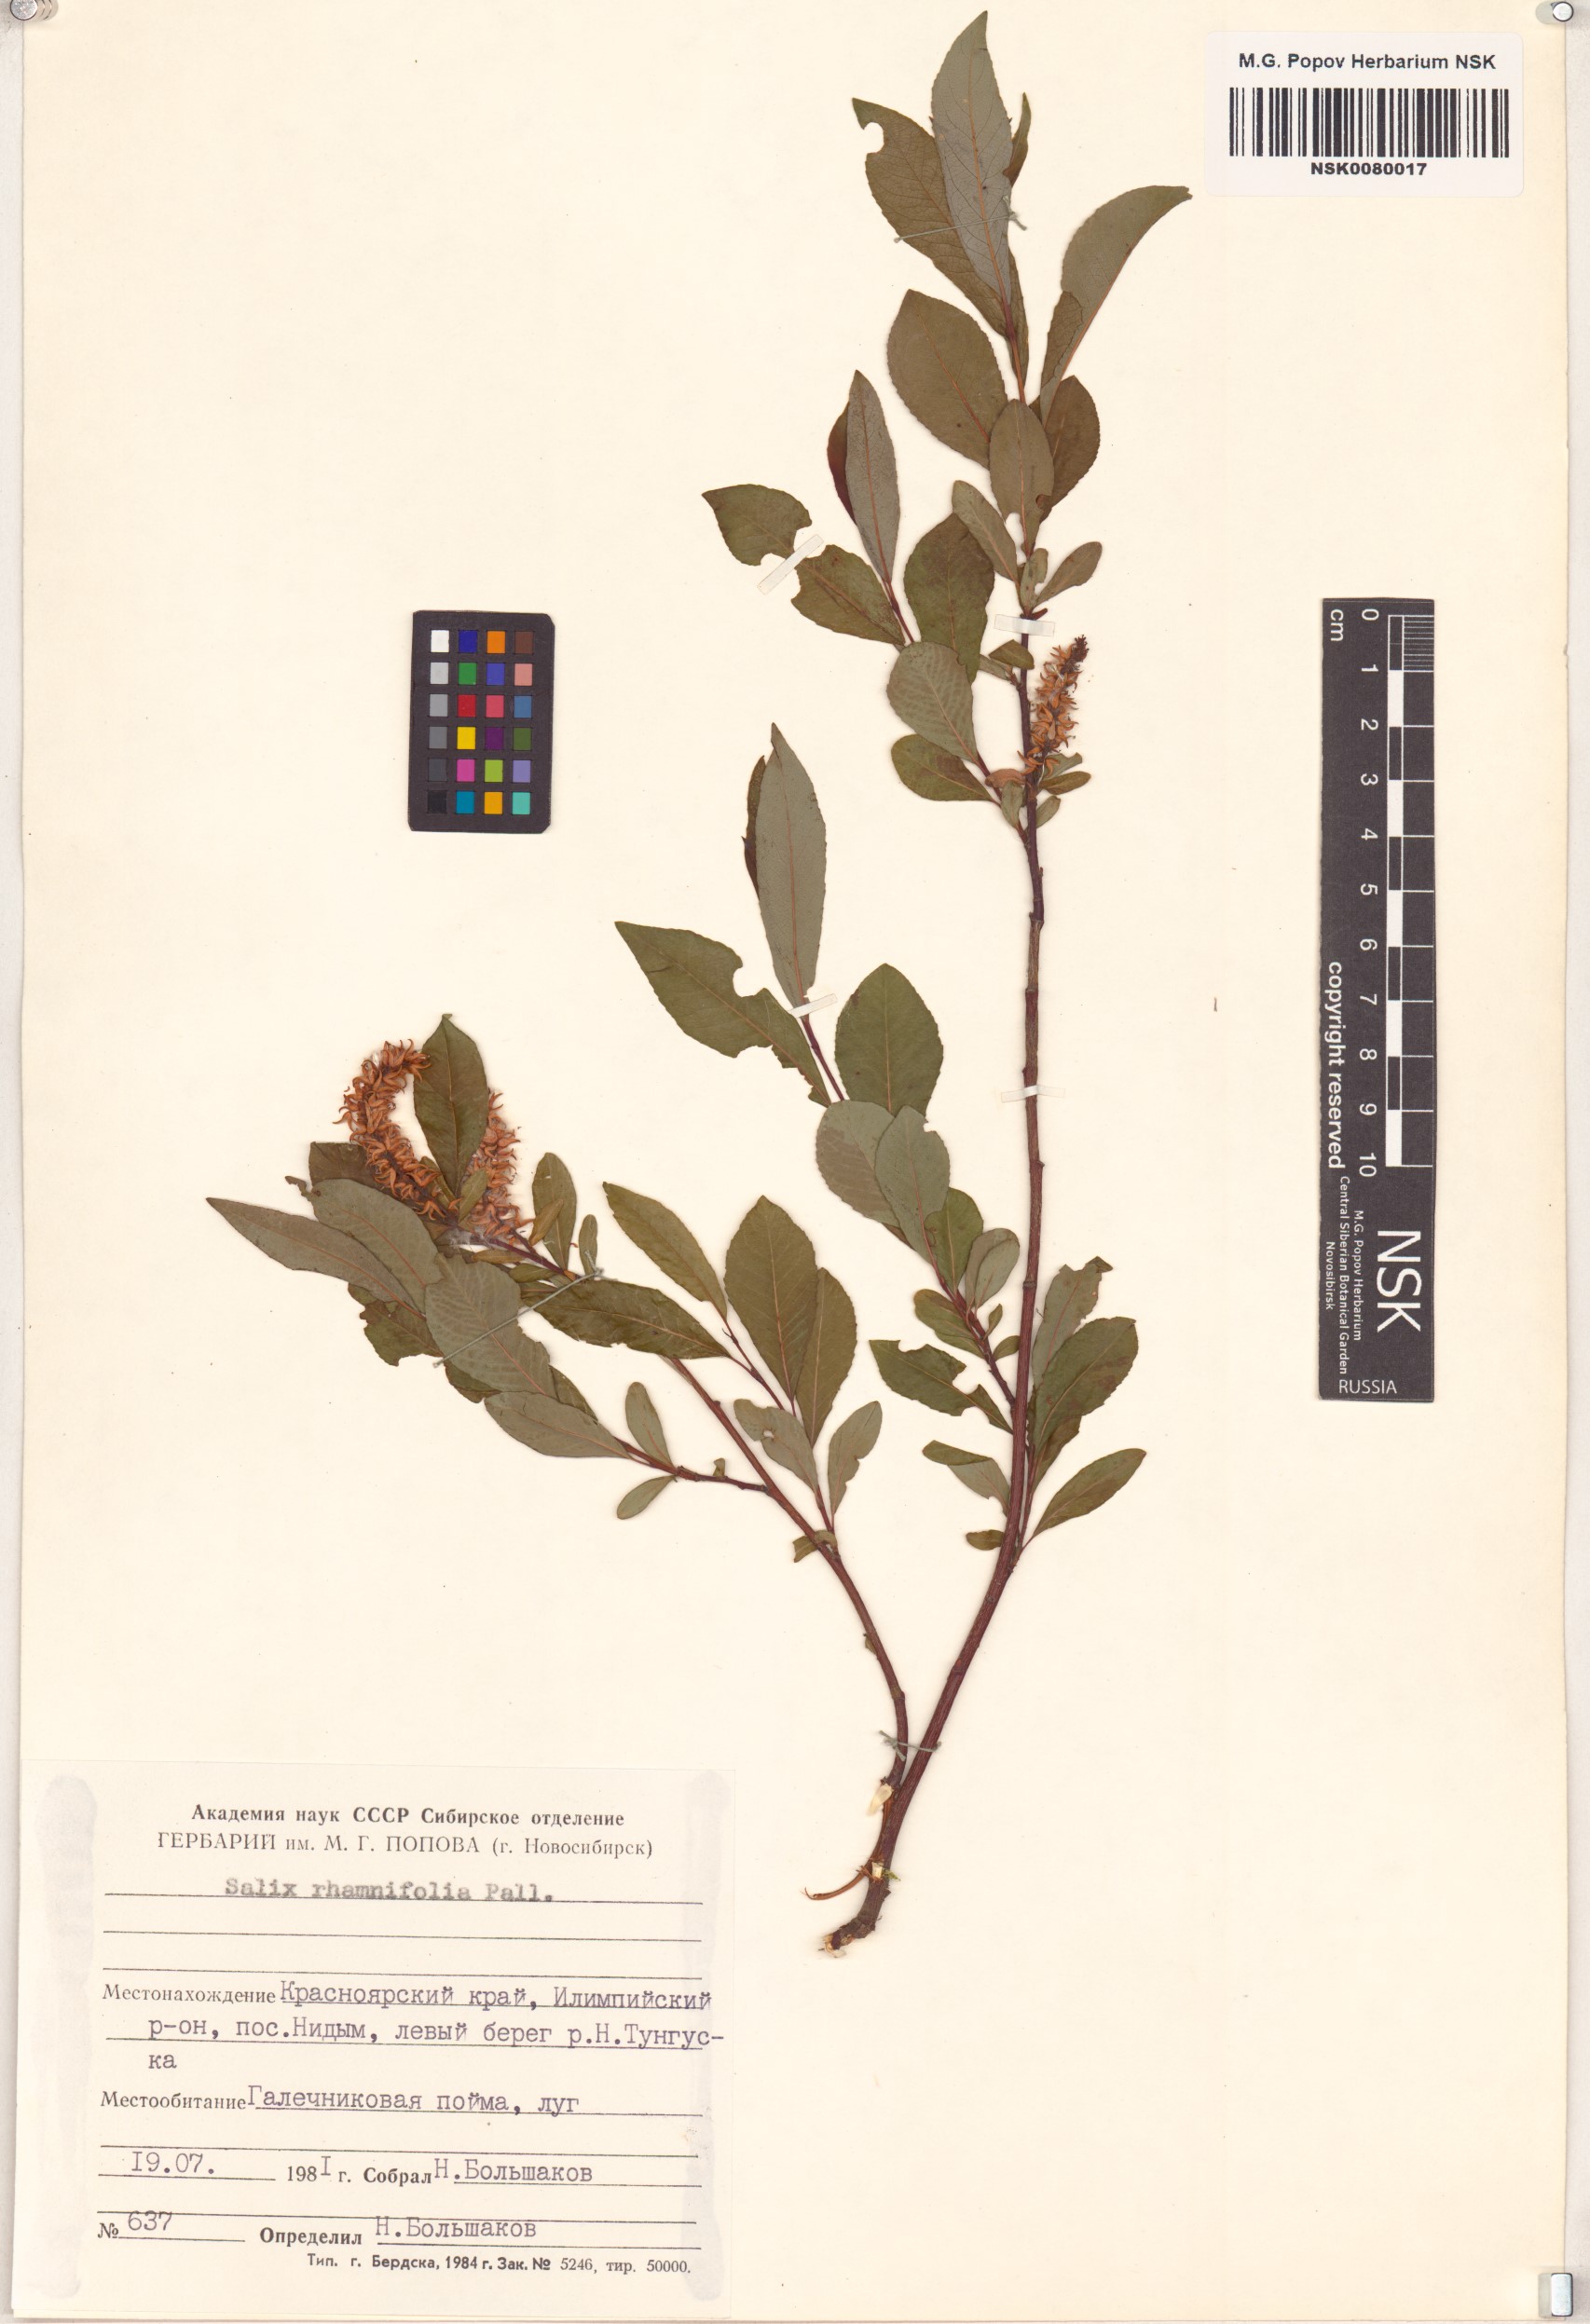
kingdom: Plantae
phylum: Tracheophyta
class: Magnoliopsida
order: Malpighiales
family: Salicaceae
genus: Salix
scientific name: Salix rhamnifolia
